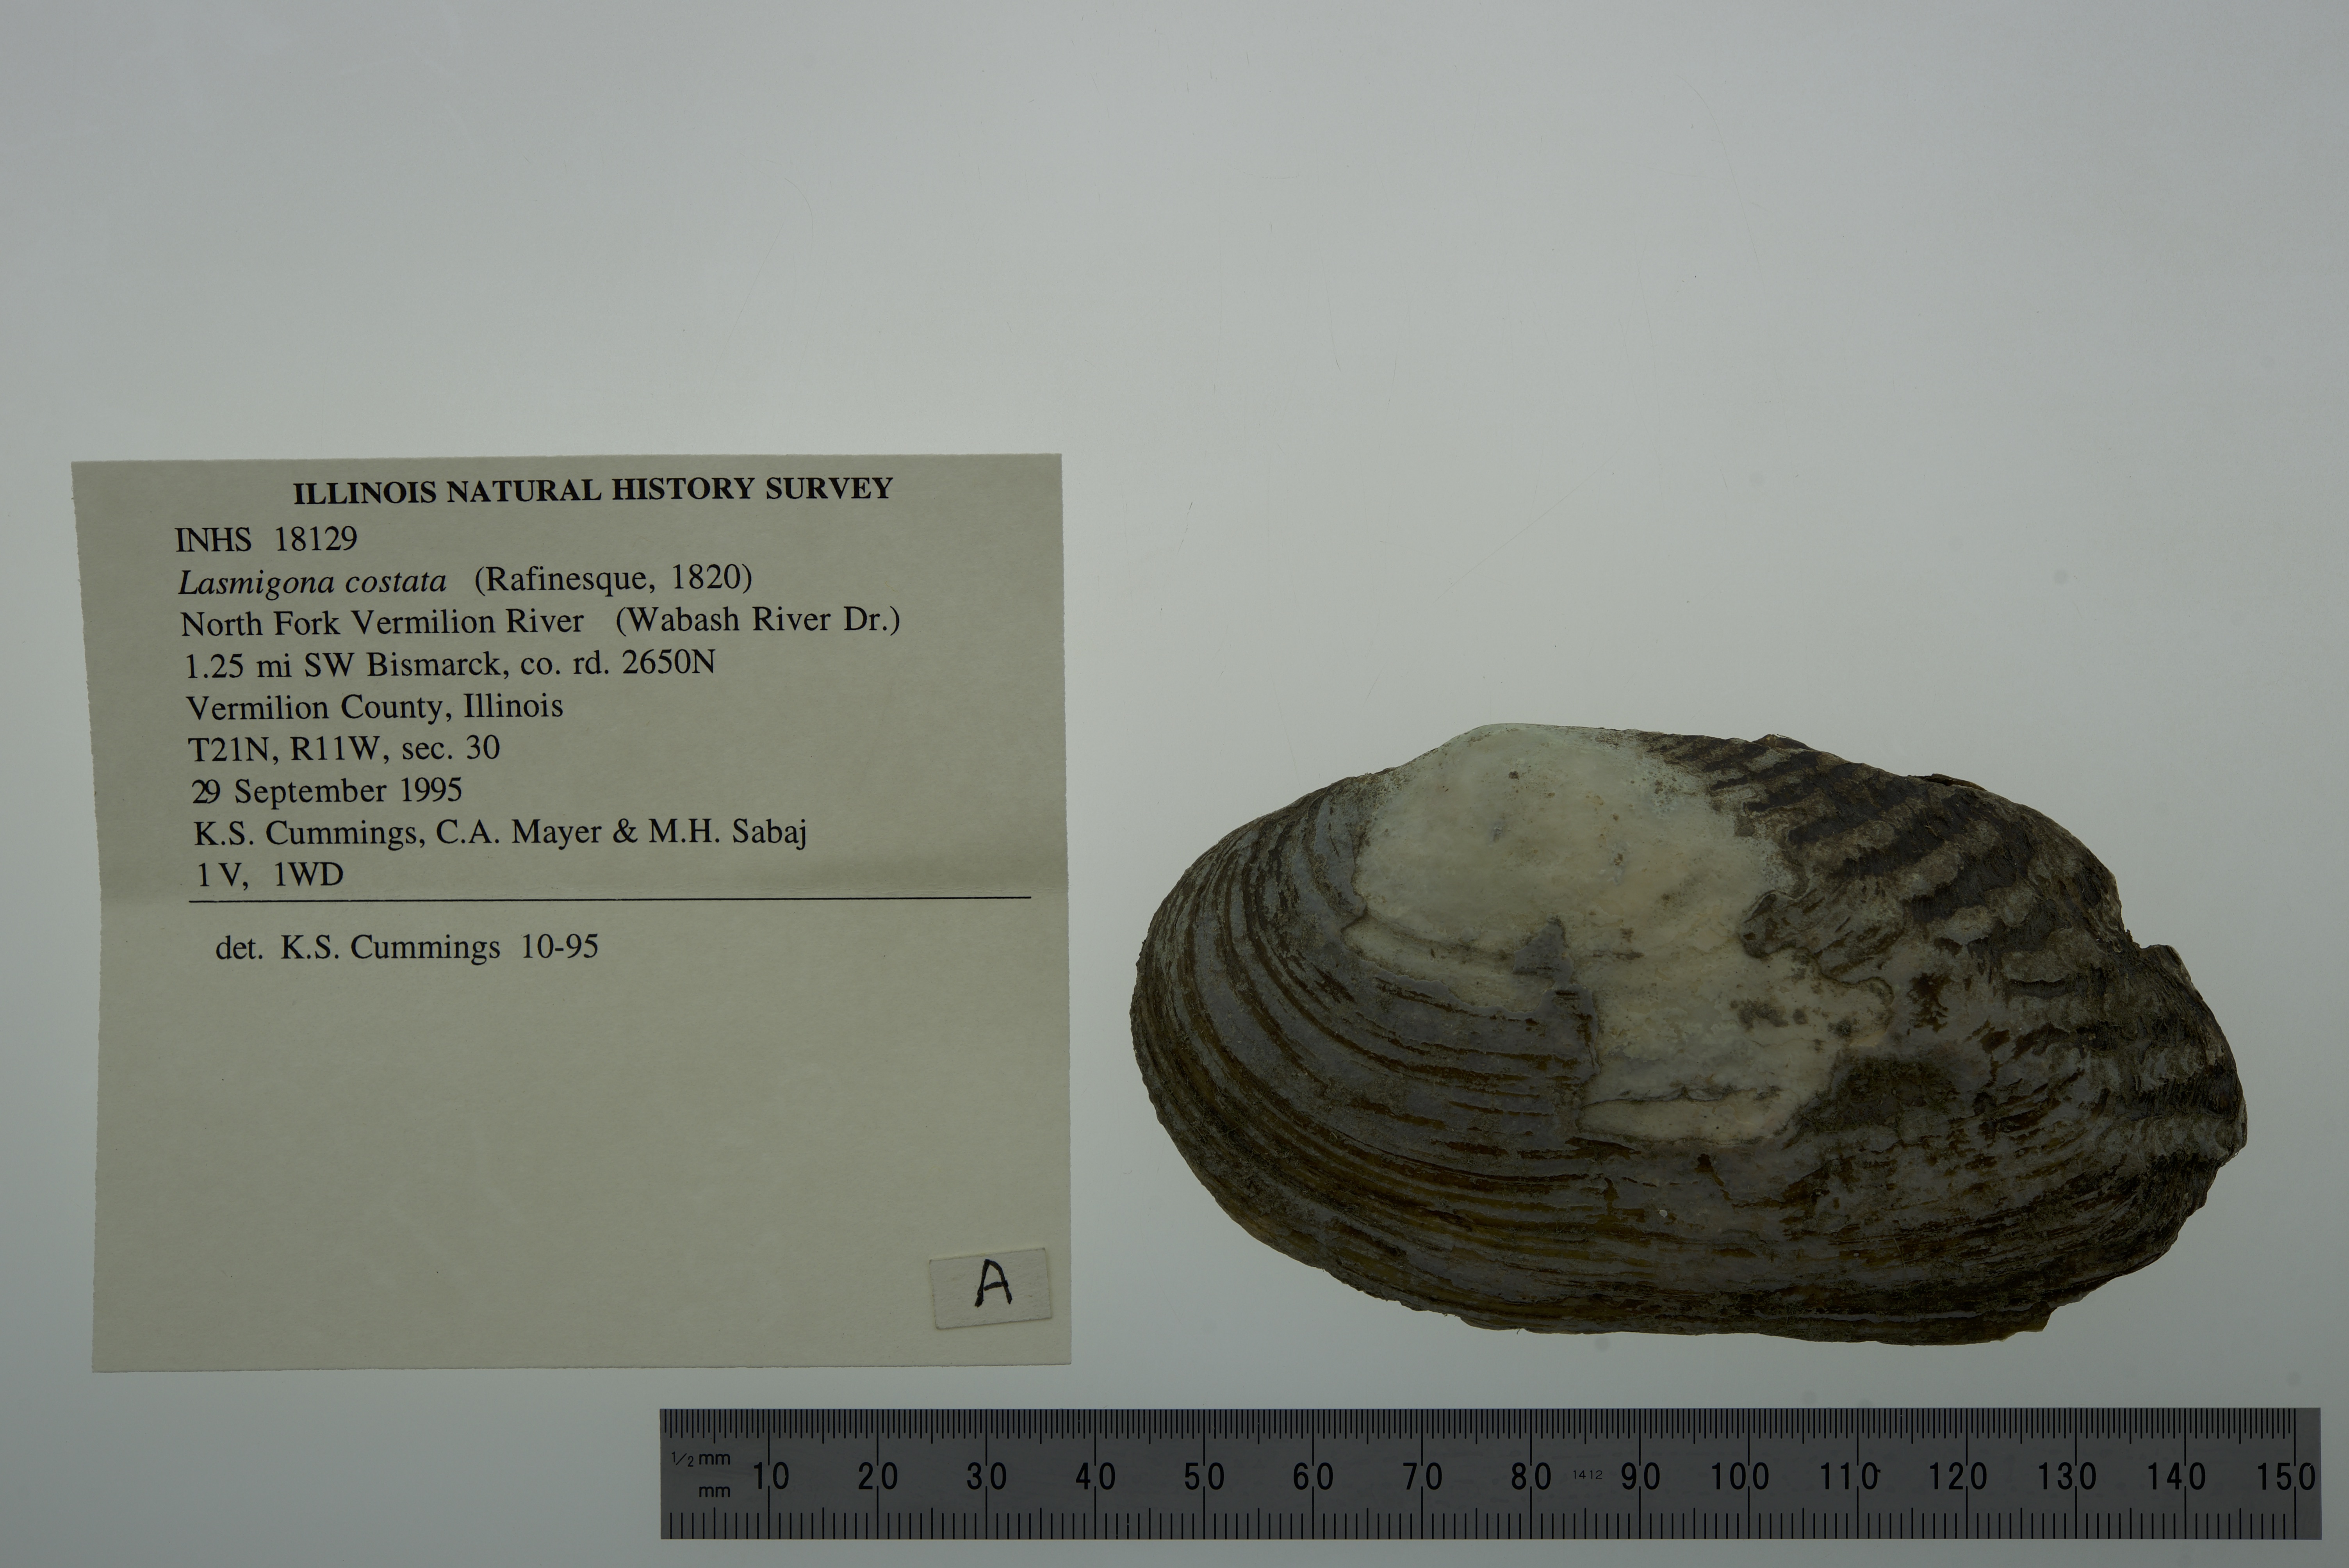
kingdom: Animalia
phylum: Mollusca
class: Bivalvia
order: Unionida
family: Unionidae
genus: Lasmigona
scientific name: Lasmigona costata
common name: Flutedshell
